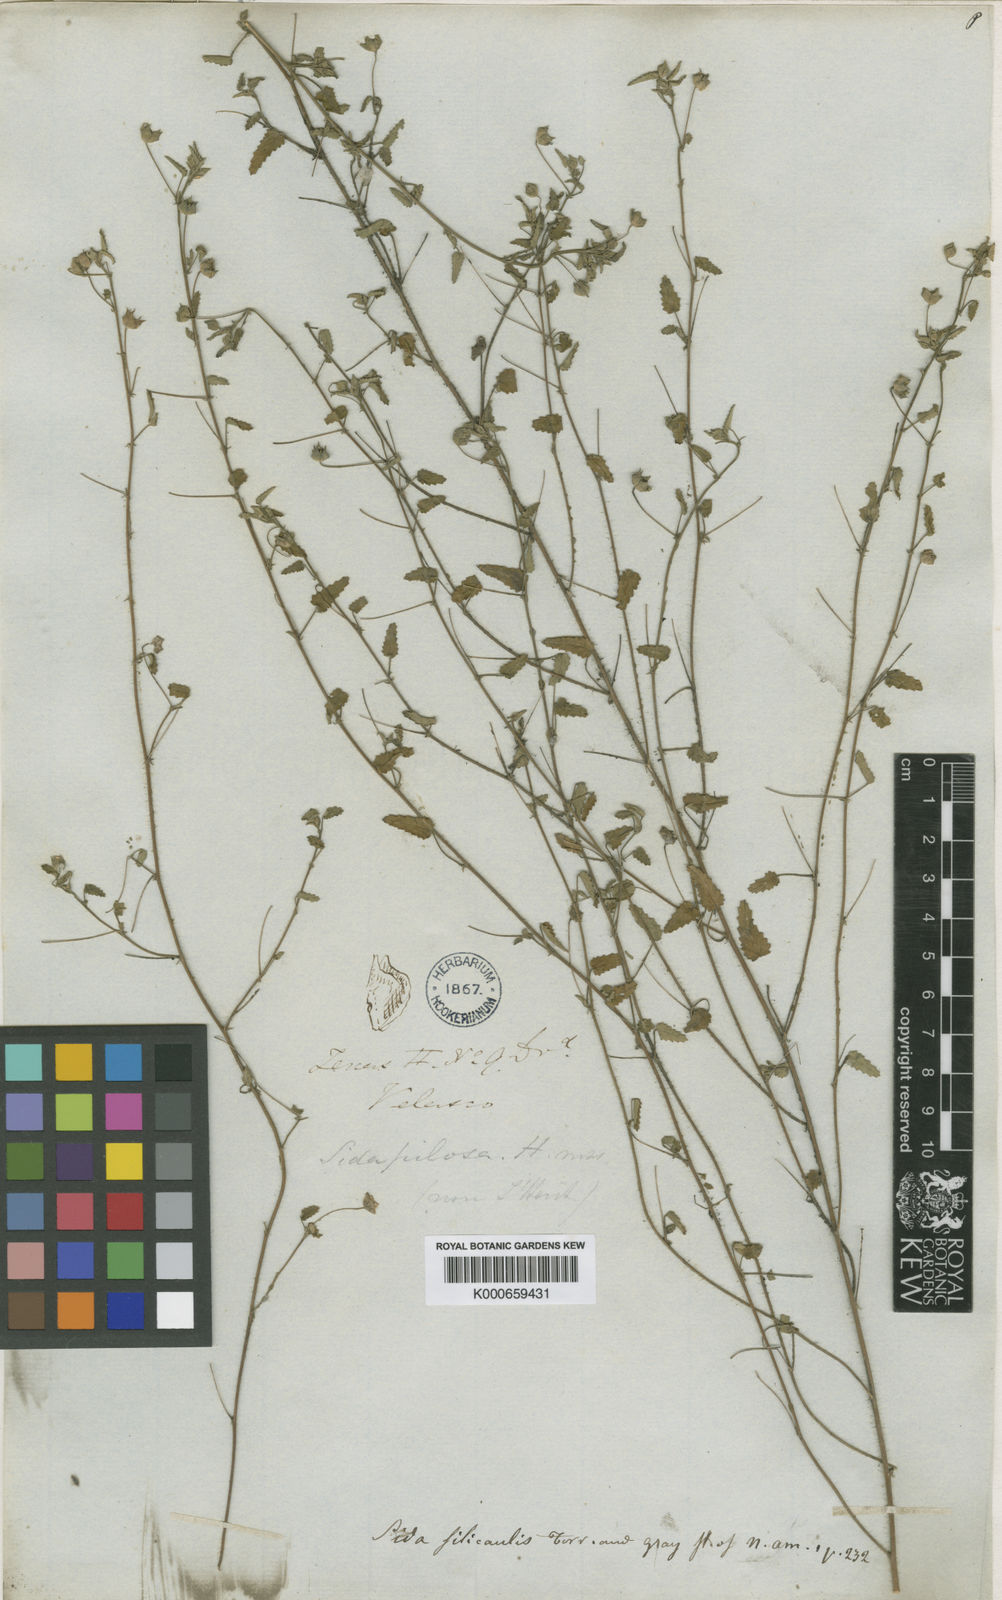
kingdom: Plantae
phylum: Tracheophyta
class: Magnoliopsida
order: Malvales
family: Malvaceae
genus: Sida
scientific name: Sida abutilifolia
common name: Spreading fanpetals
